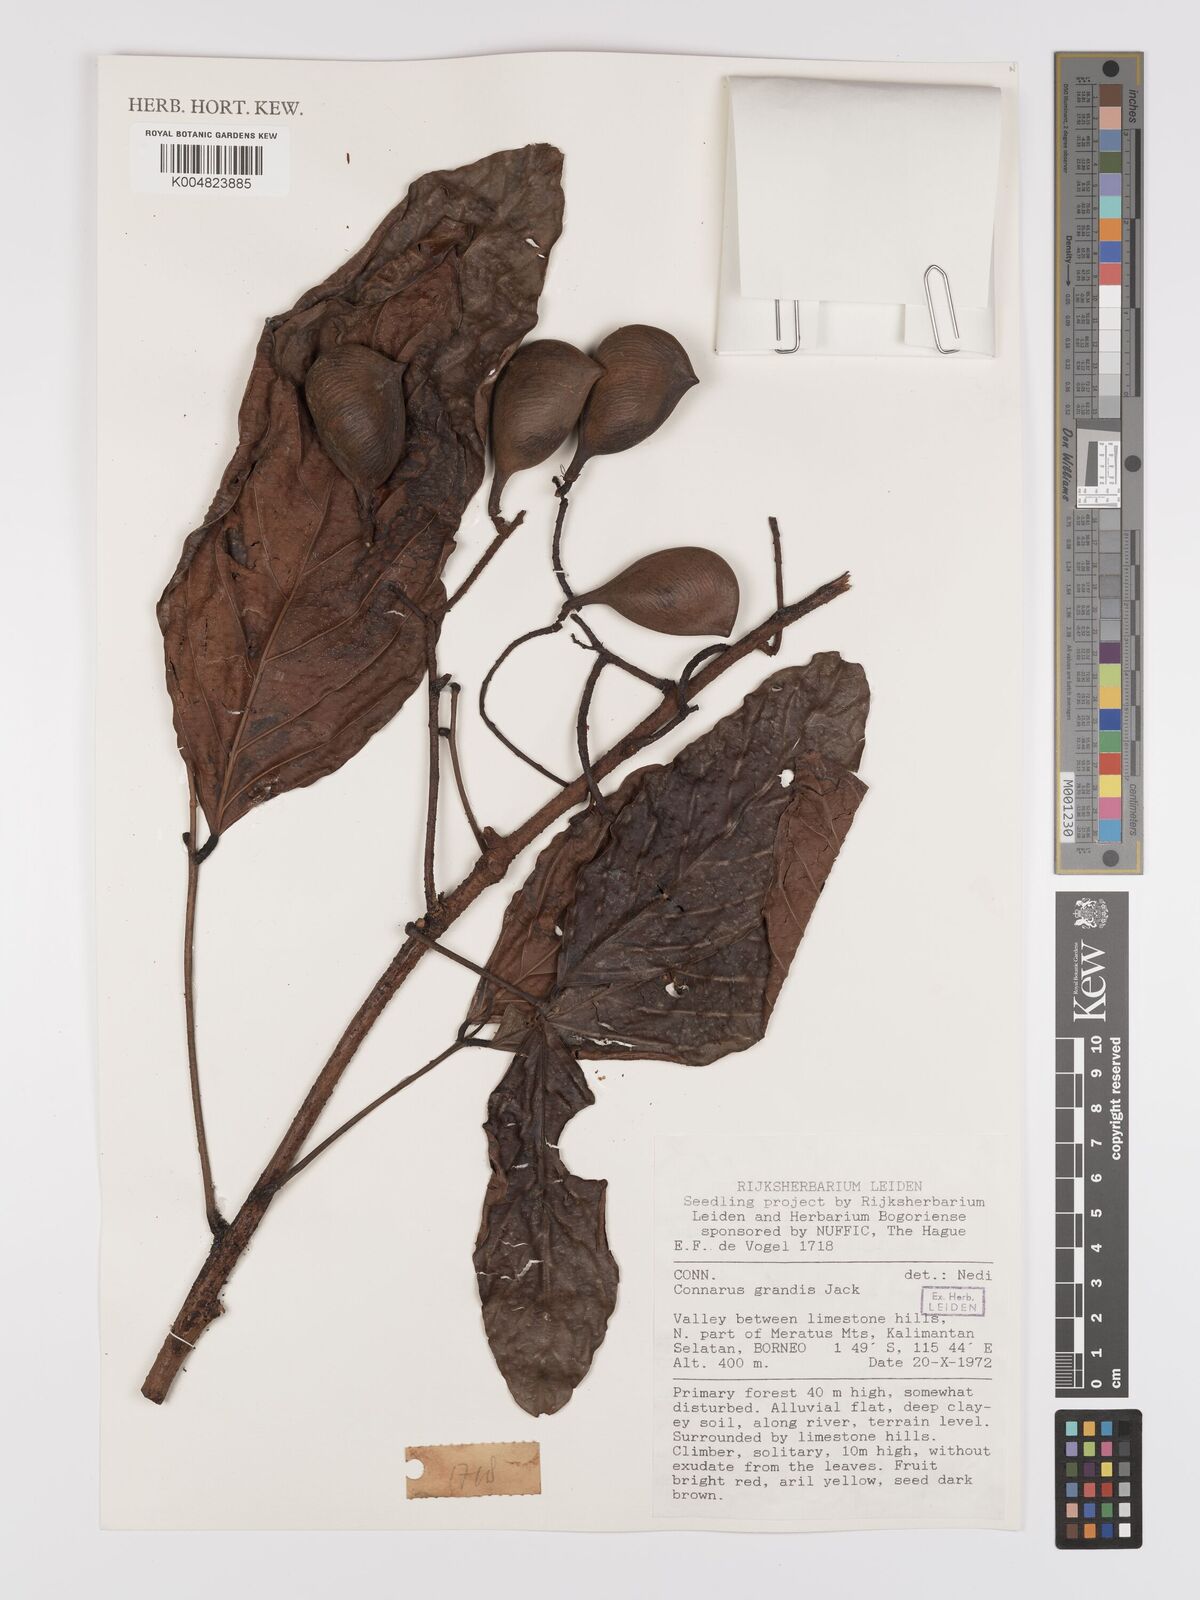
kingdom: Plantae
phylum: Tracheophyta
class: Magnoliopsida
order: Oxalidales
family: Connaraceae
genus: Connarus
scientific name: Connarus grandis
